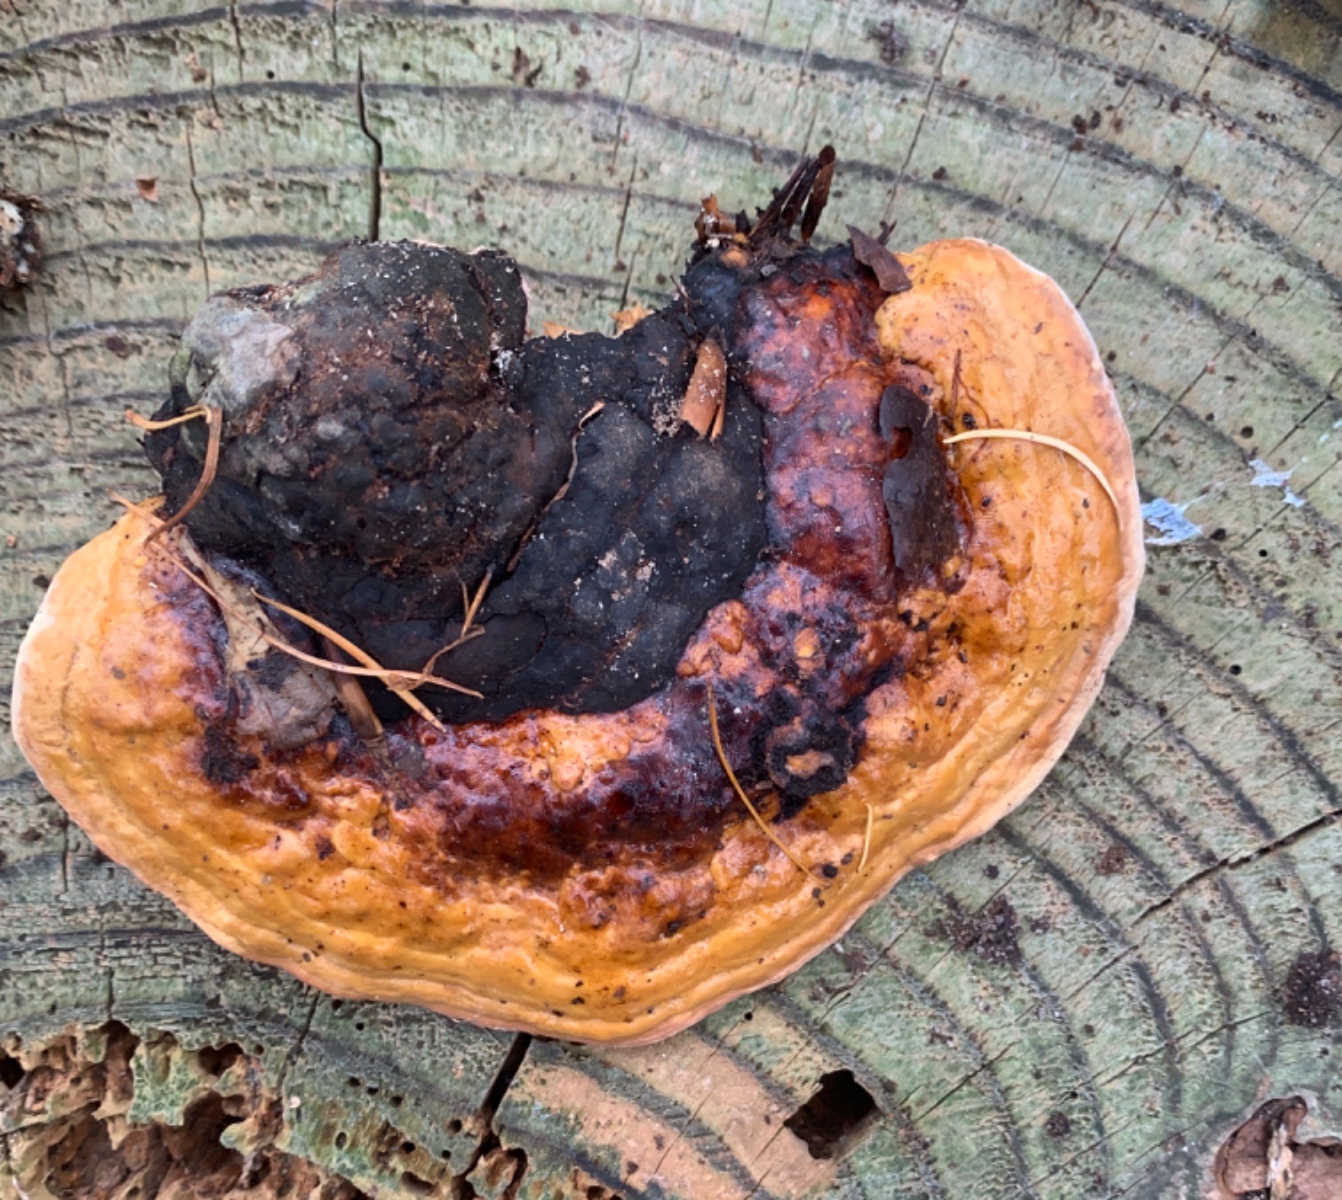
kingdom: Fungi
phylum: Basidiomycota
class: Agaricomycetes
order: Polyporales
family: Fomitopsidaceae
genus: Fomitopsis
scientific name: Fomitopsis pinicola
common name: randbæltet hovporesvamp
